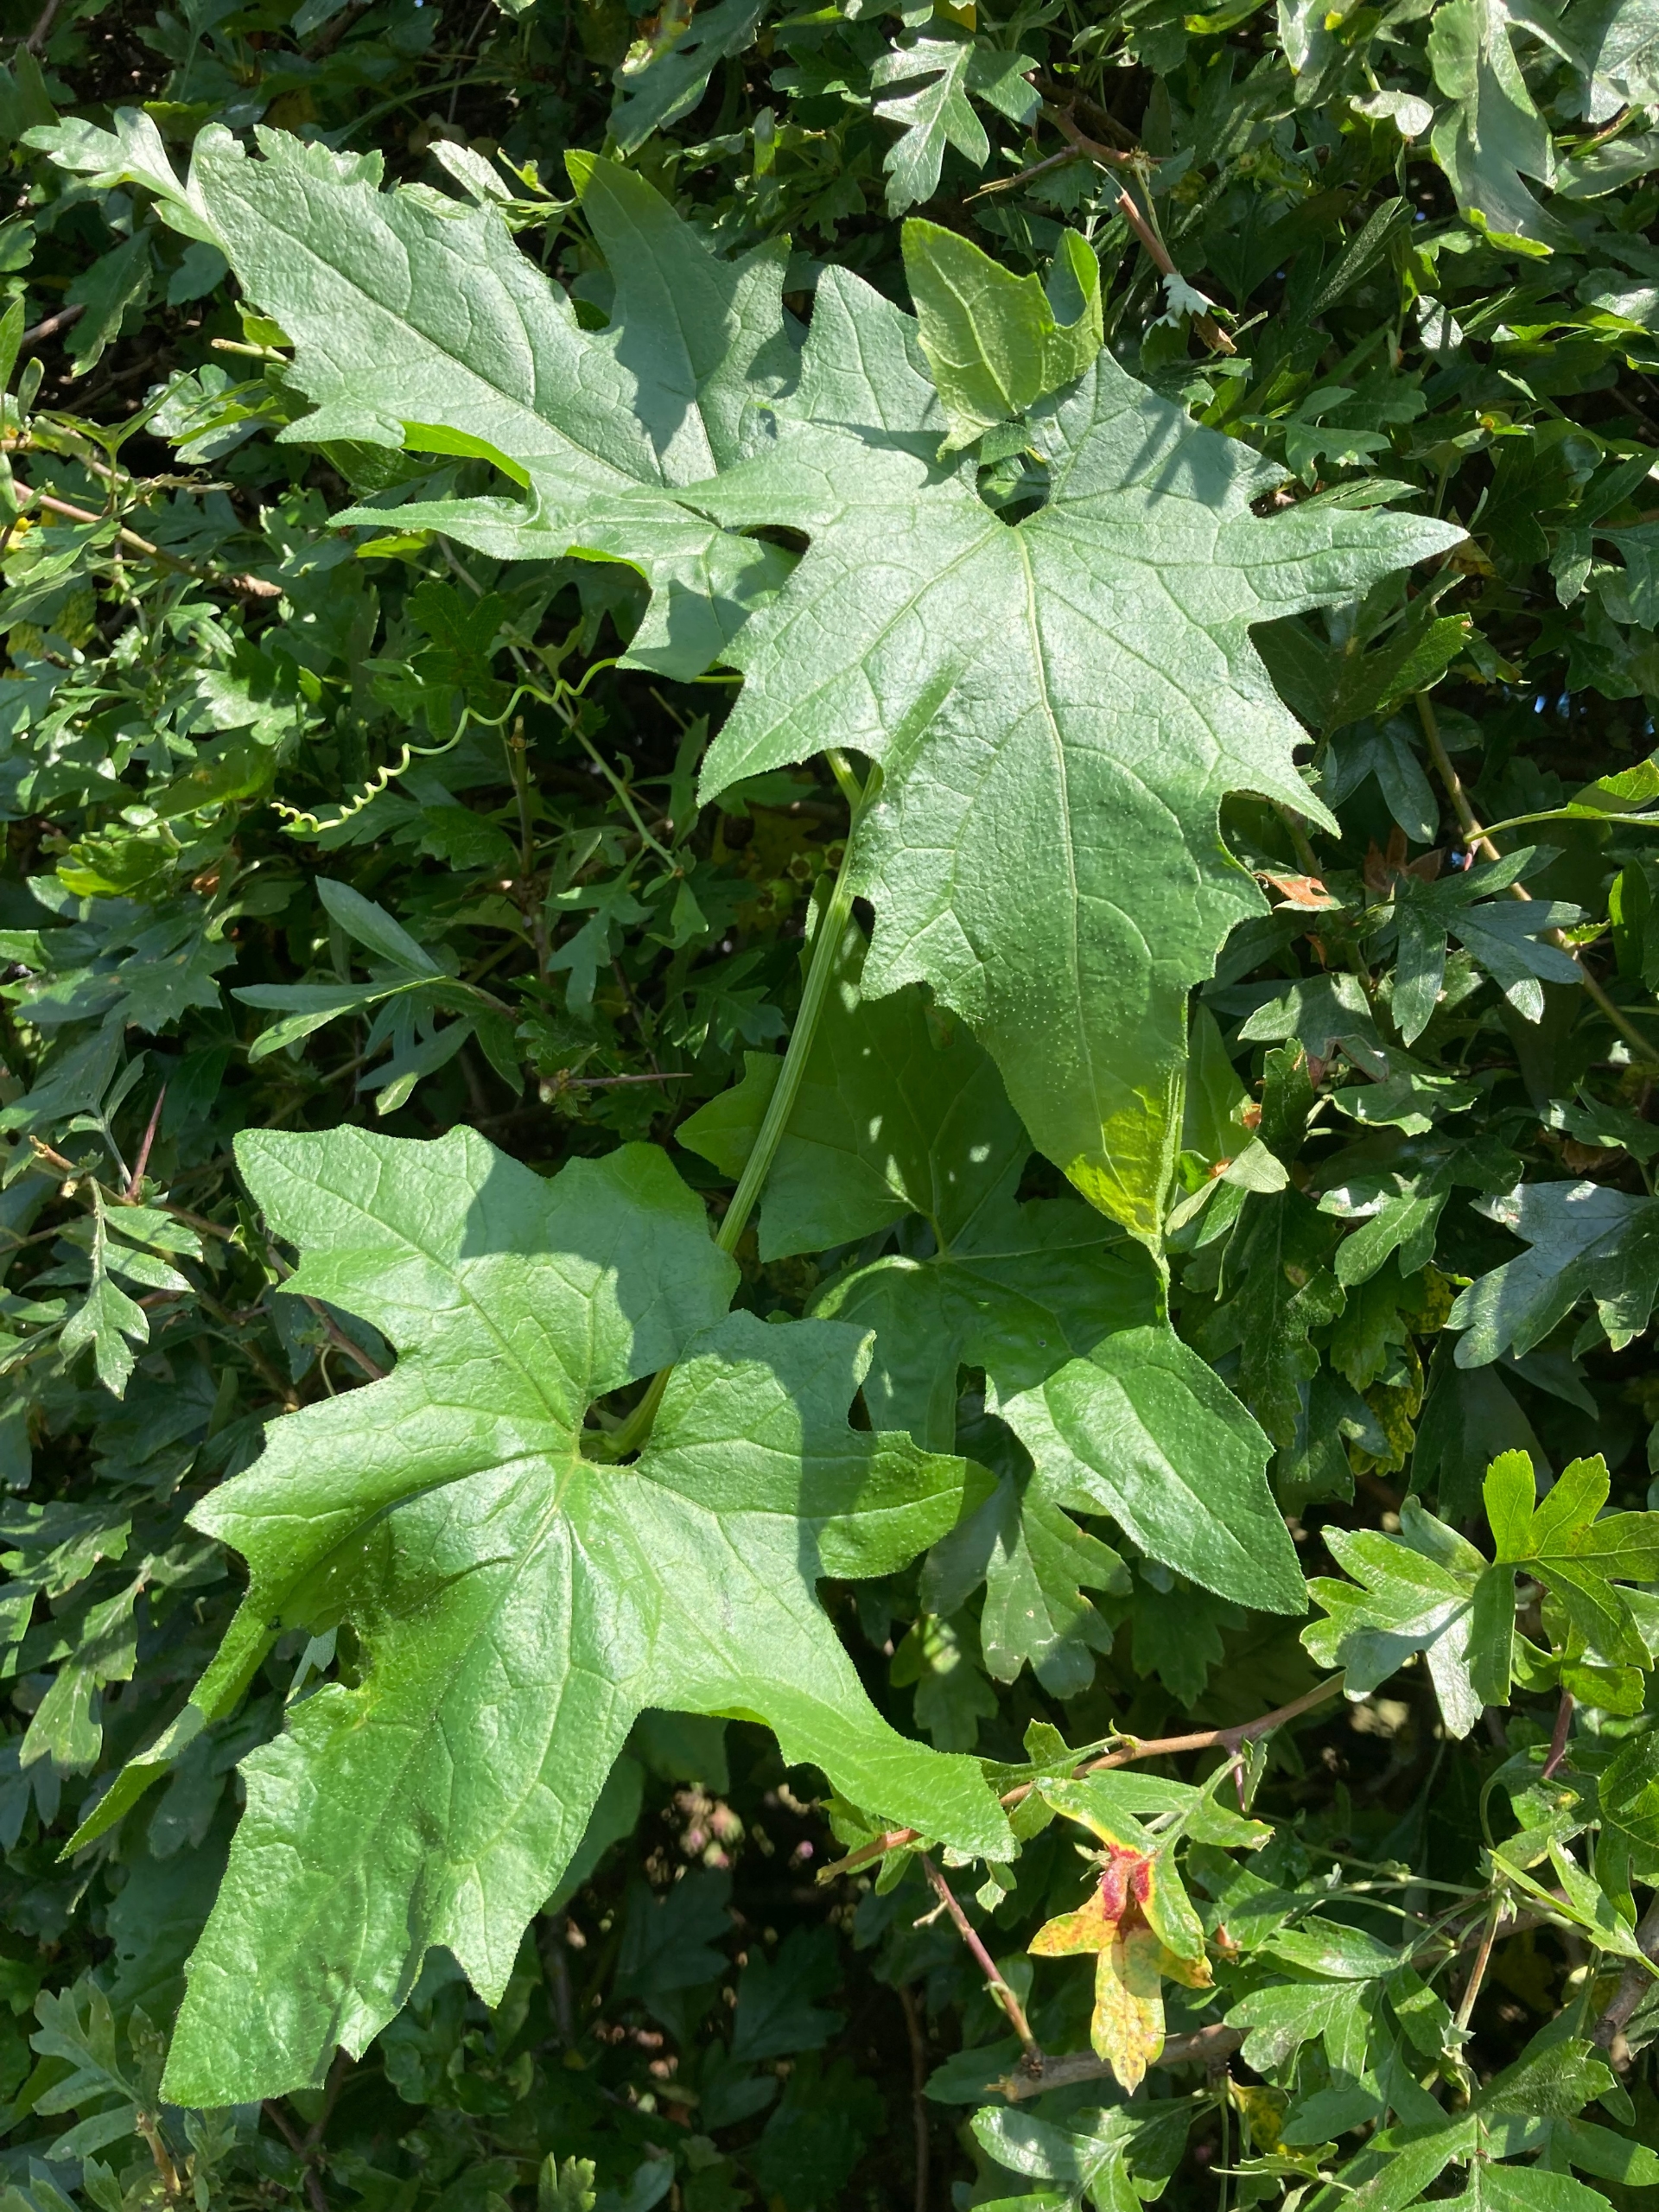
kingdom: Plantae
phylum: Tracheophyta
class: Magnoliopsida
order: Cucurbitales
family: Cucurbitaceae
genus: Bryonia
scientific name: Bryonia alba
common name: Enbo galdebær
